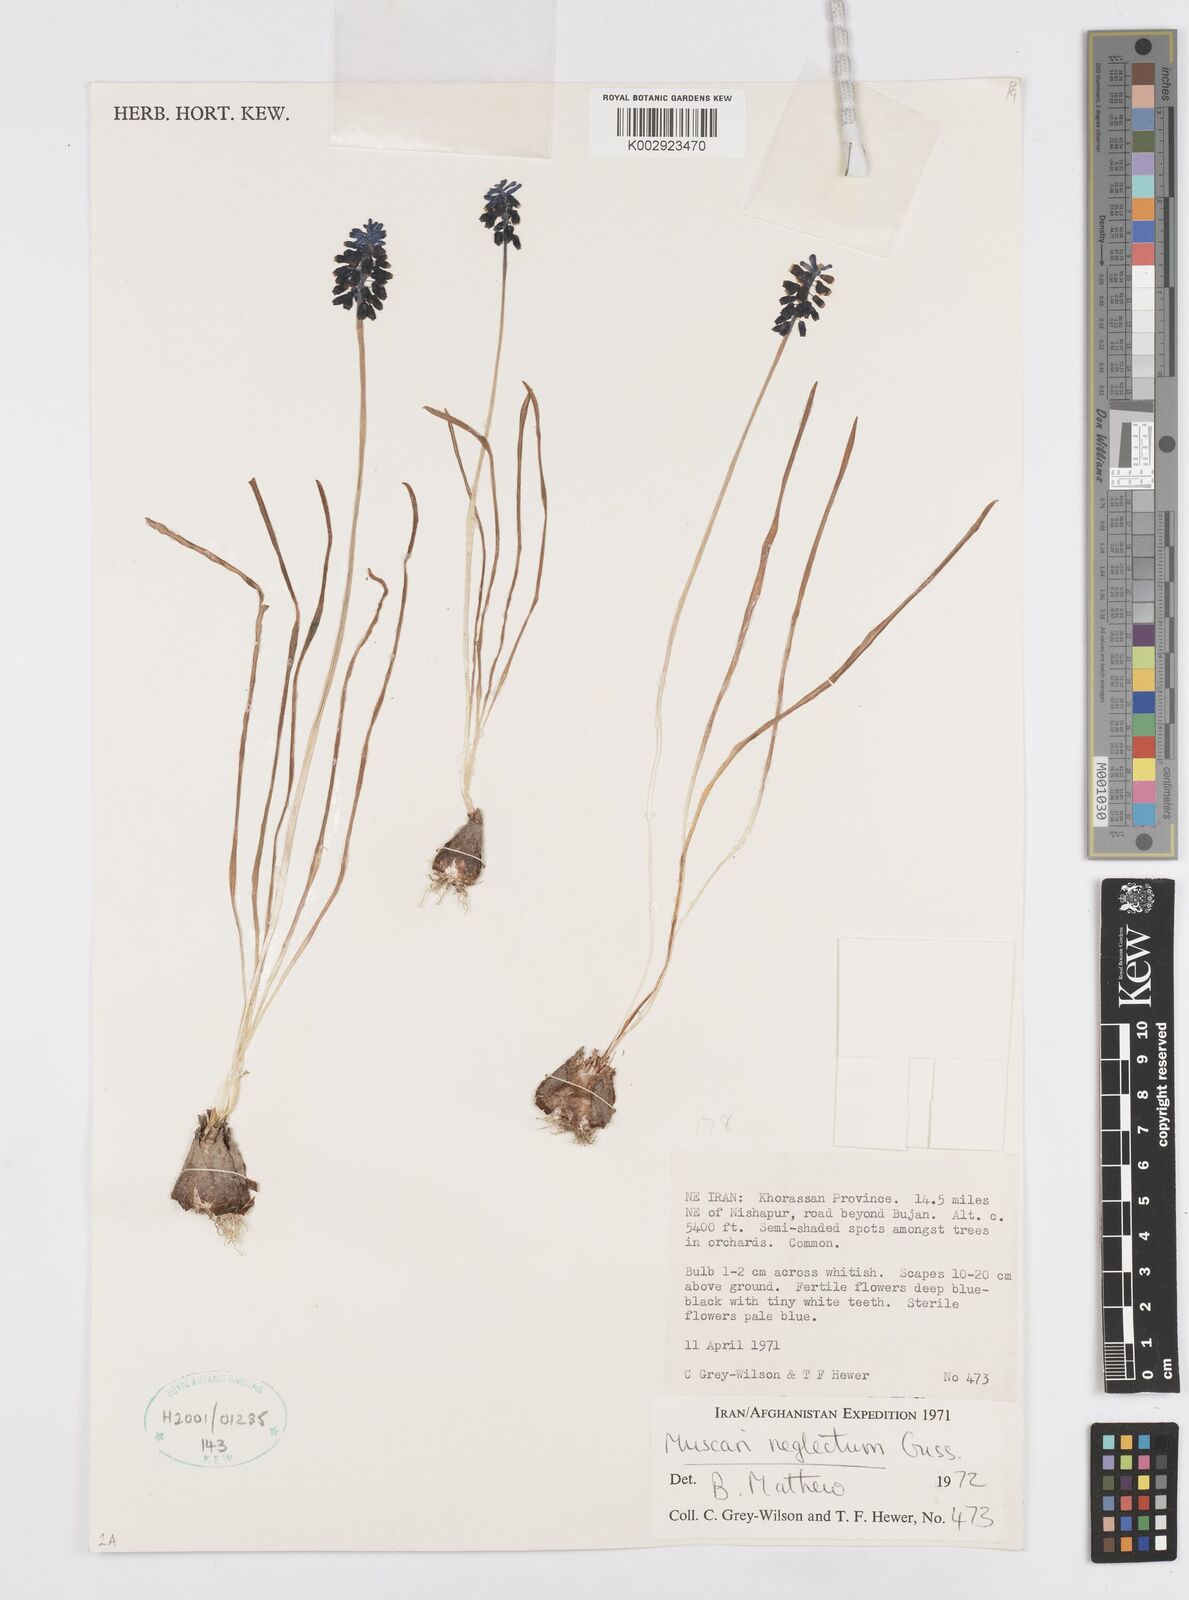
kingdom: Plantae
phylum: Tracheophyta
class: Liliopsida
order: Asparagales
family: Asparagaceae
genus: Muscari
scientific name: Muscari neglectum
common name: Grape-hyacinth
